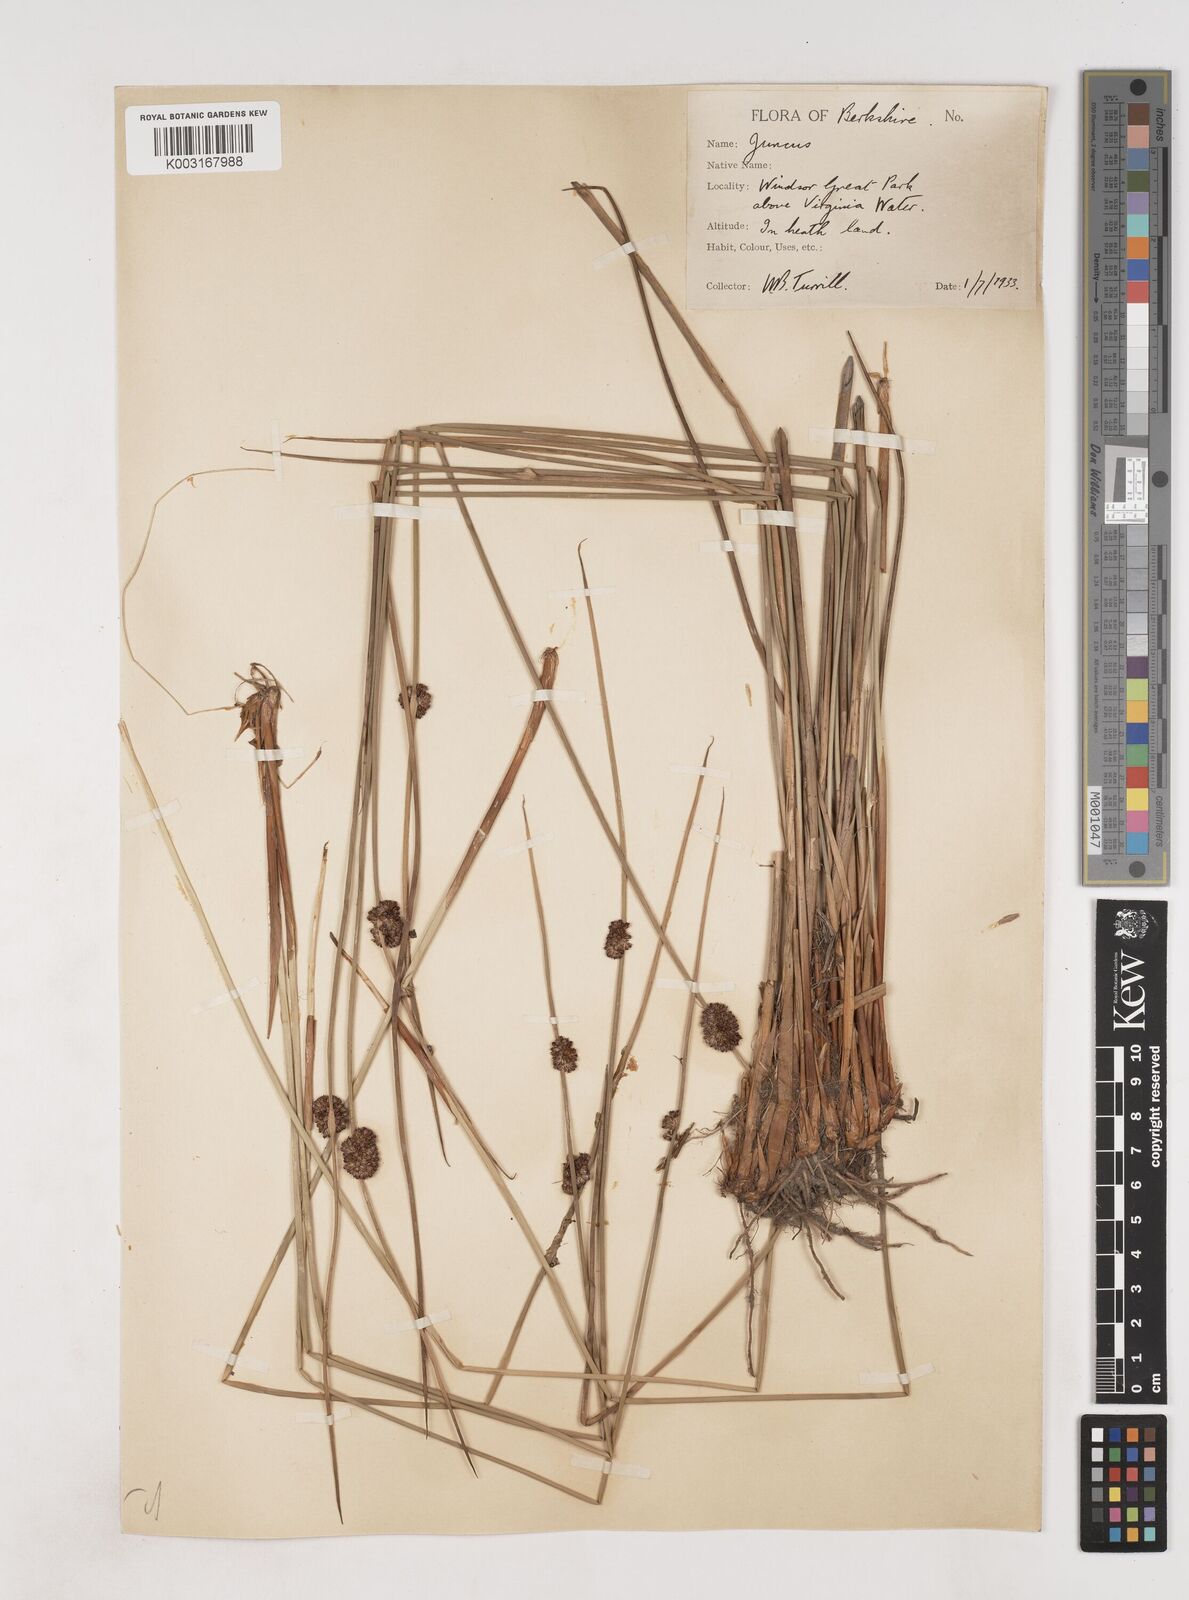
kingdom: Plantae
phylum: Tracheophyta
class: Liliopsida
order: Poales
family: Juncaceae
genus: Juncus
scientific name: Juncus conglomeratus
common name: Compact rush
